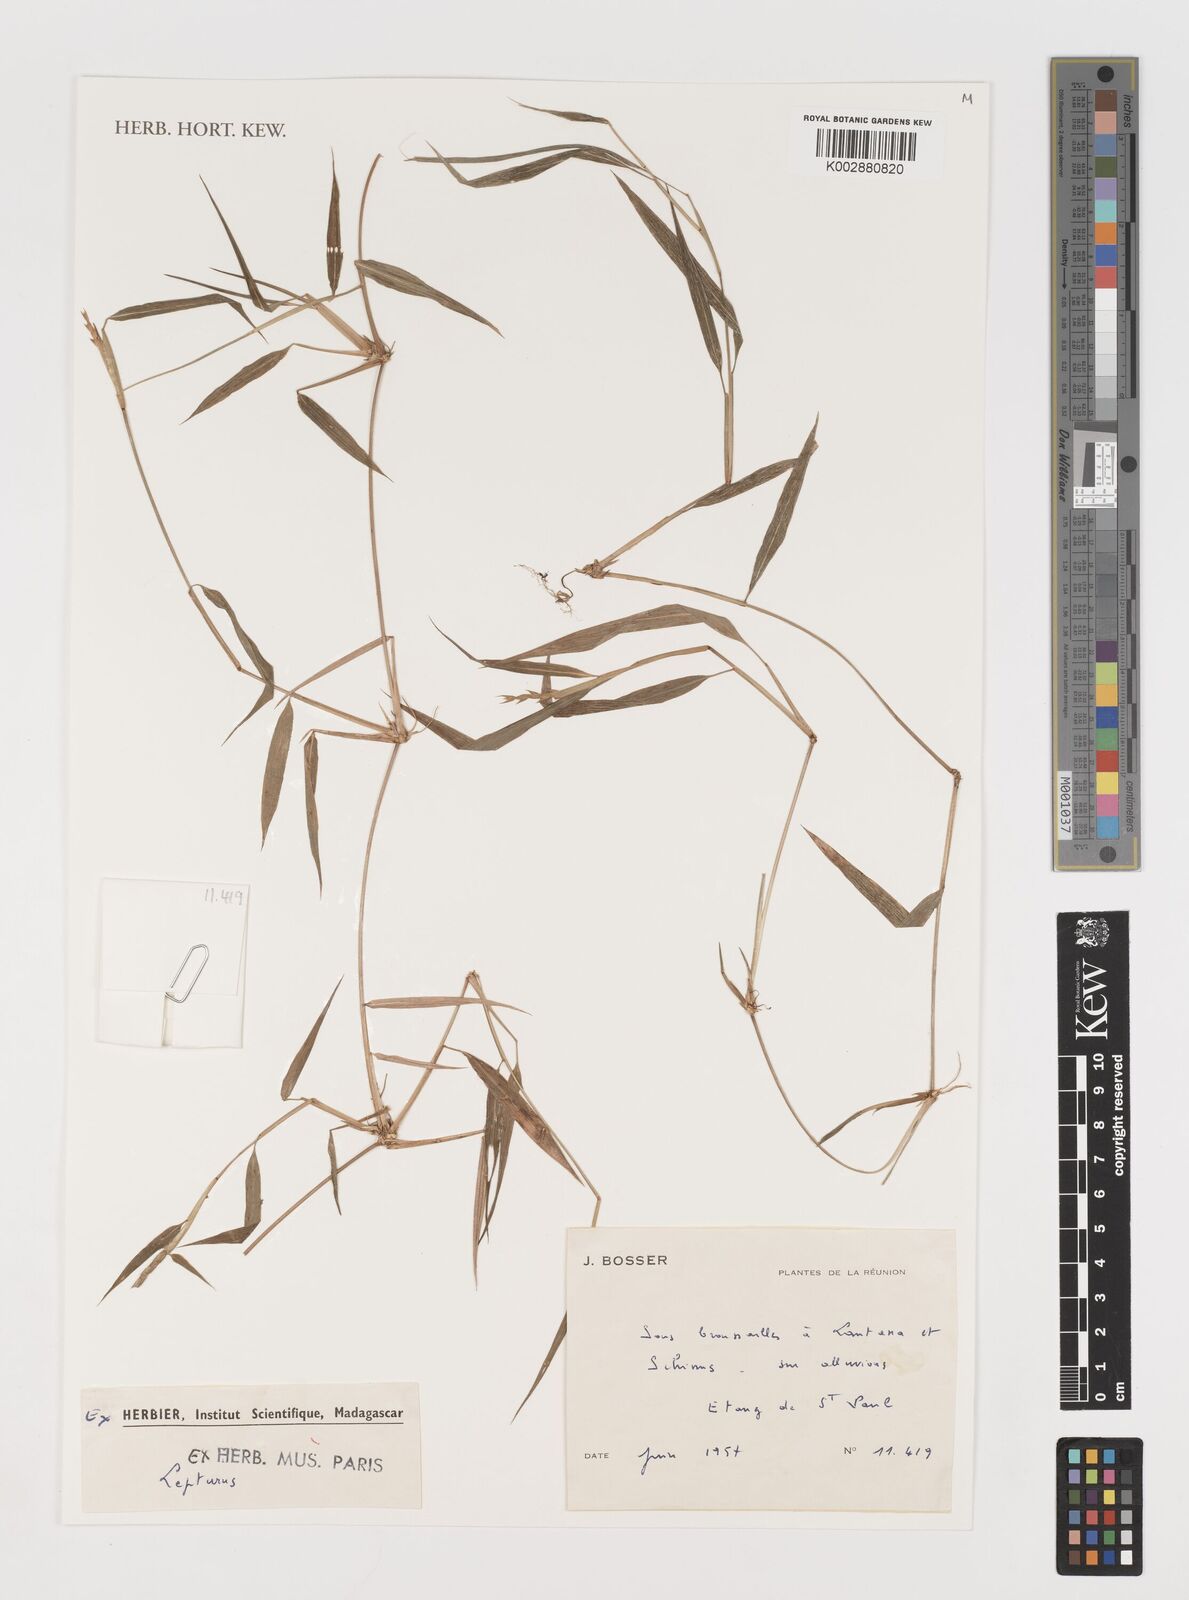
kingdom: Plantae
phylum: Tracheophyta
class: Liliopsida
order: Poales
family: Poaceae
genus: Lepturus
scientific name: Lepturus
